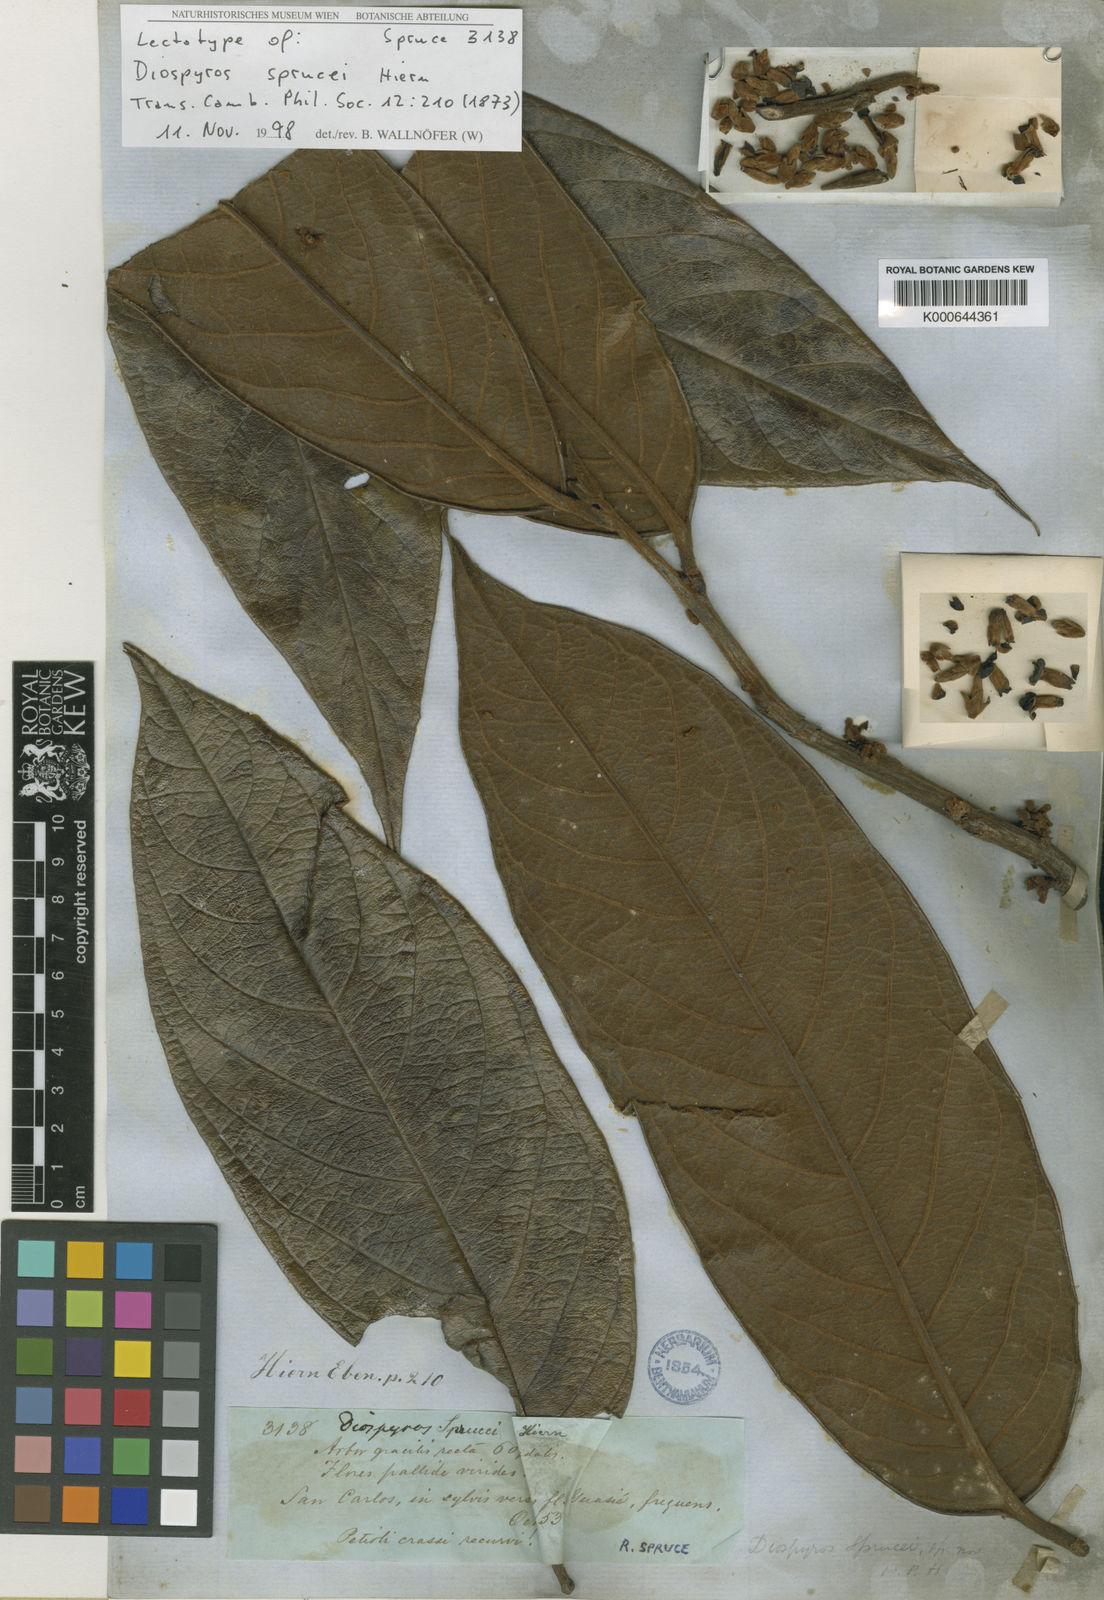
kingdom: Plantae
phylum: Tracheophyta
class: Magnoliopsida
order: Ericales
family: Ebenaceae
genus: Diospyros
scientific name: Diospyros sprucei
